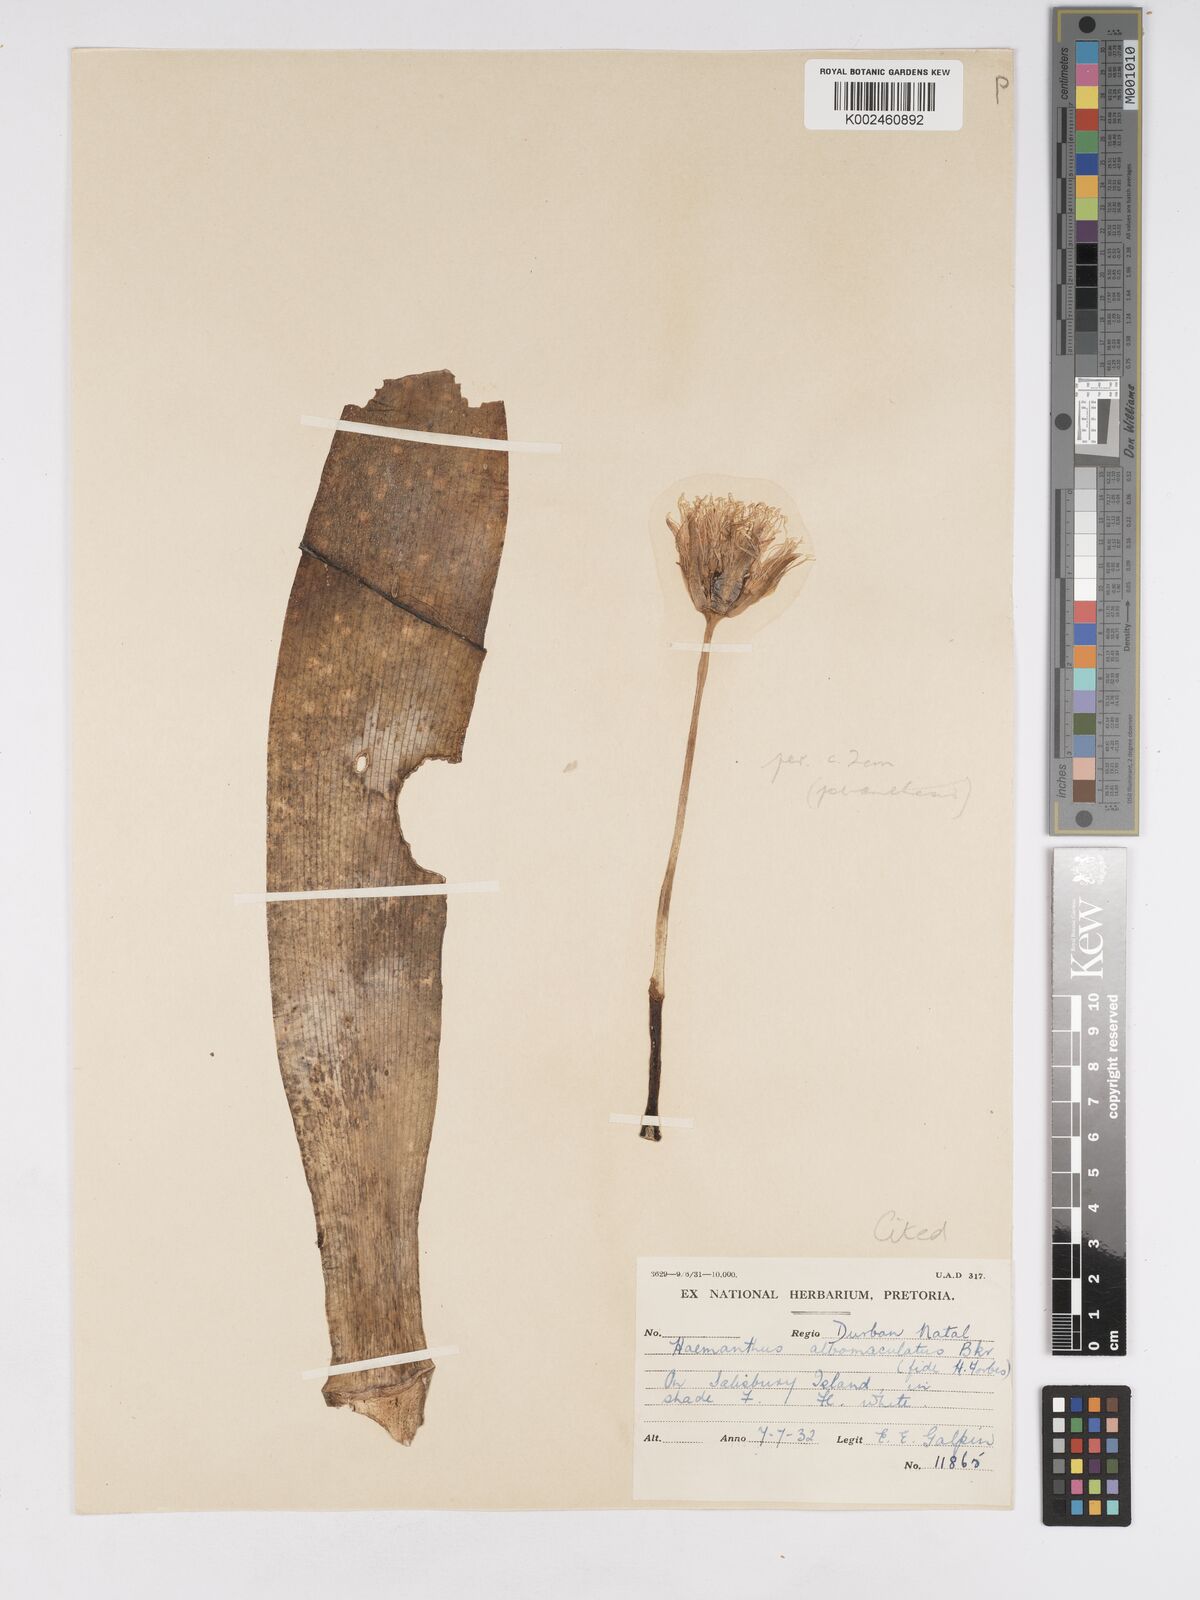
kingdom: Plantae
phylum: Tracheophyta
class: Liliopsida
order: Asparagales
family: Amaryllidaceae
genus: Haemanthus
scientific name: Haemanthus albiflos
